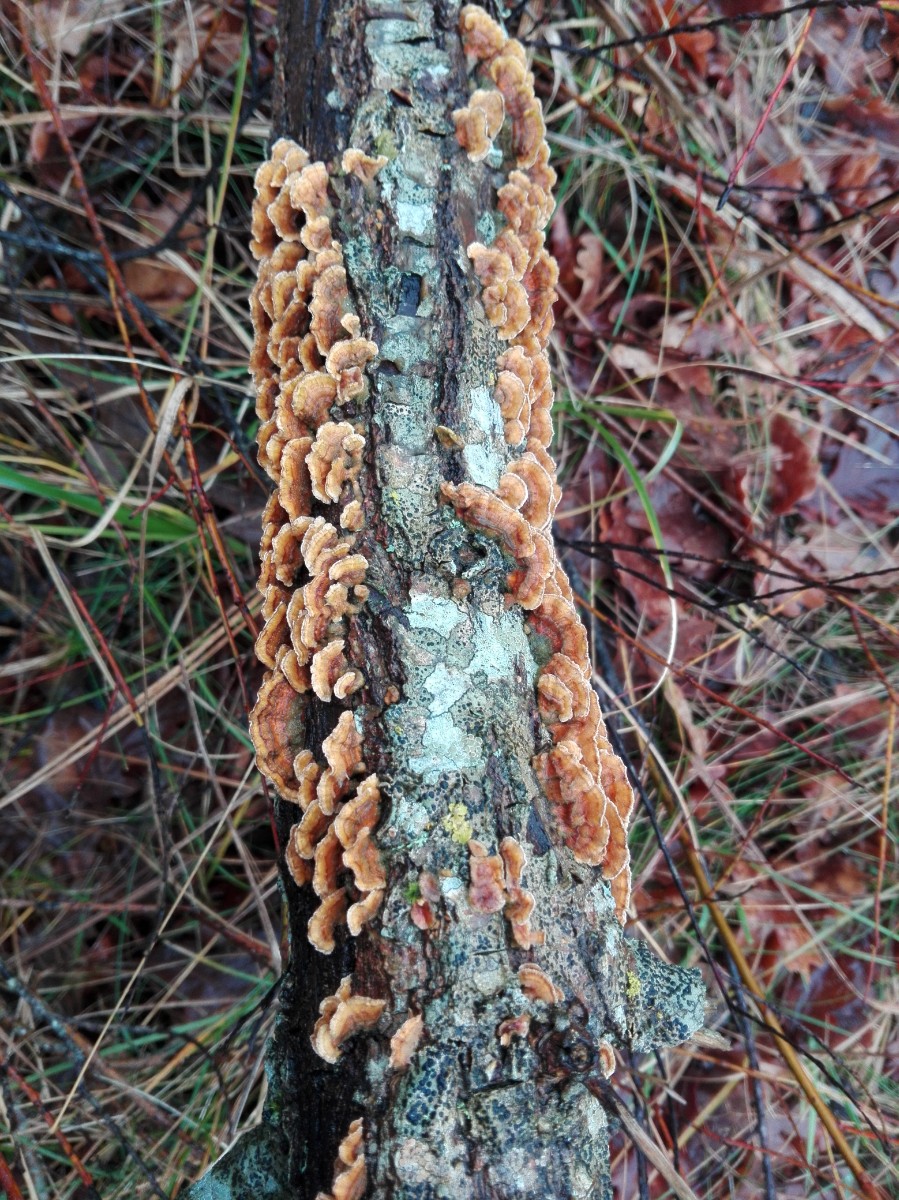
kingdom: Fungi
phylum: Basidiomycota
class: Agaricomycetes
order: Russulales
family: Stereaceae
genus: Stereum
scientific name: Stereum hirsutum
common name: håret lædersvamp
